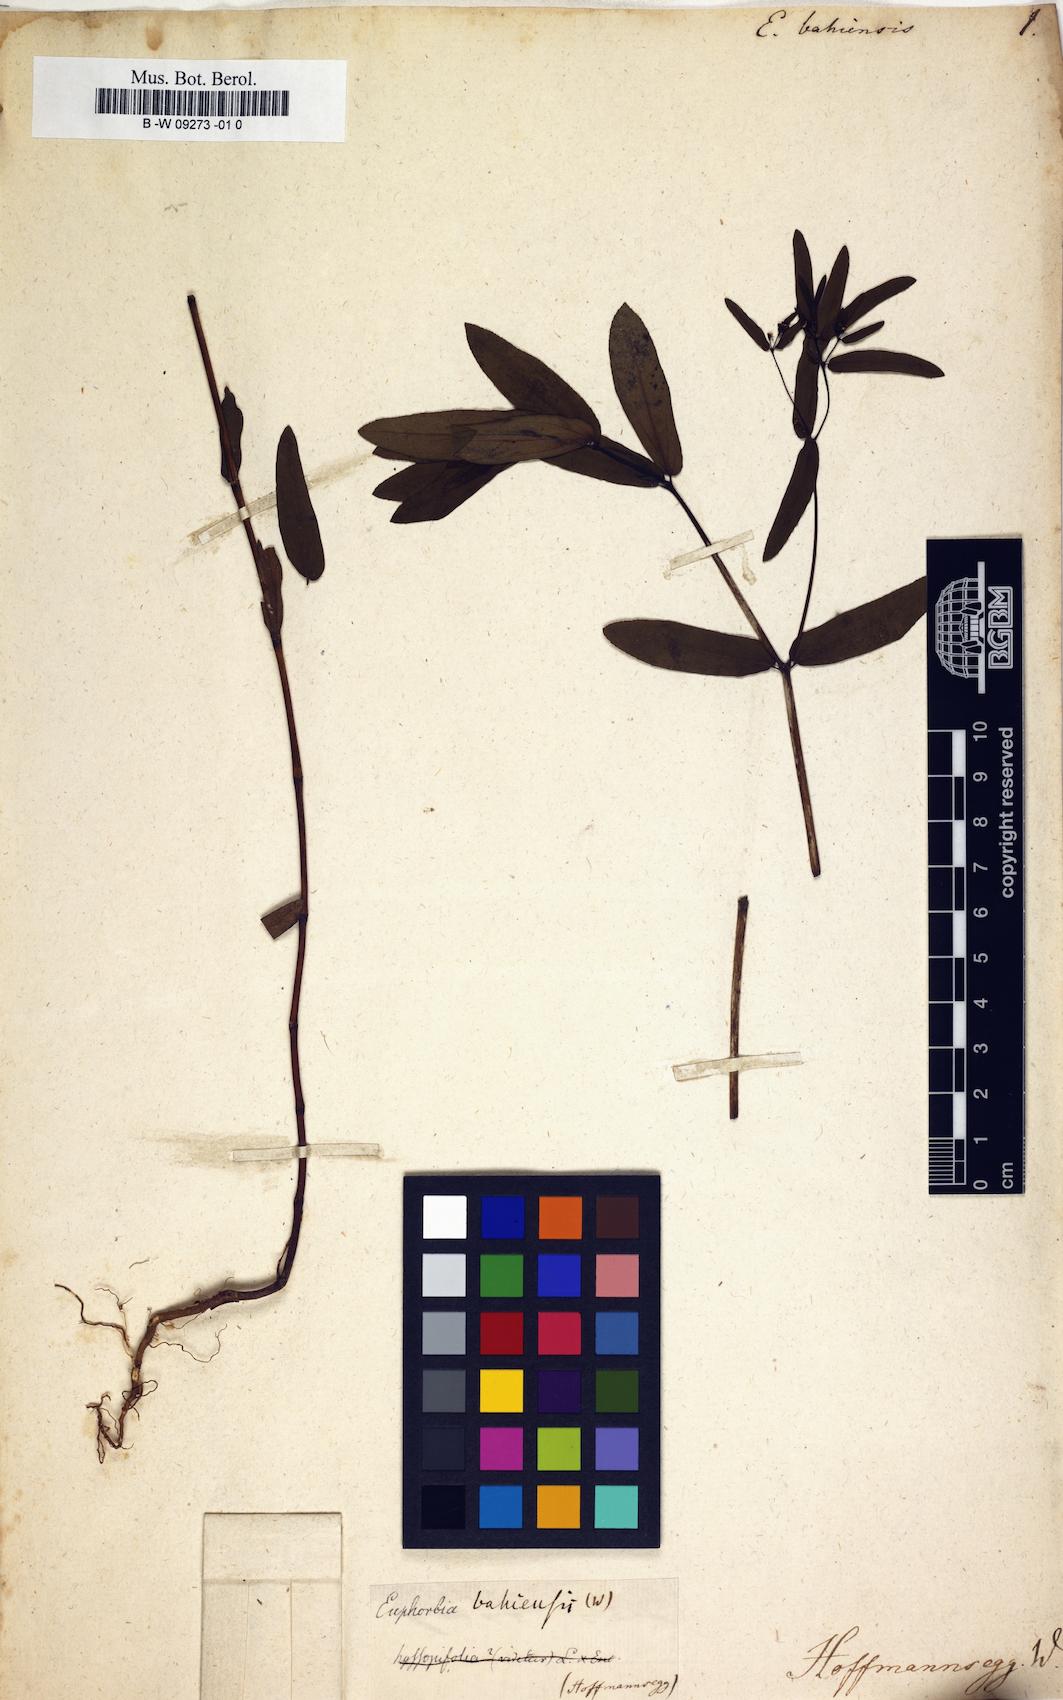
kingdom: Plantae
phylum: Tracheophyta
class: Magnoliopsida
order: Malpighiales
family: Euphorbiaceae
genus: Euphorbia
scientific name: Euphorbia bahiensis
